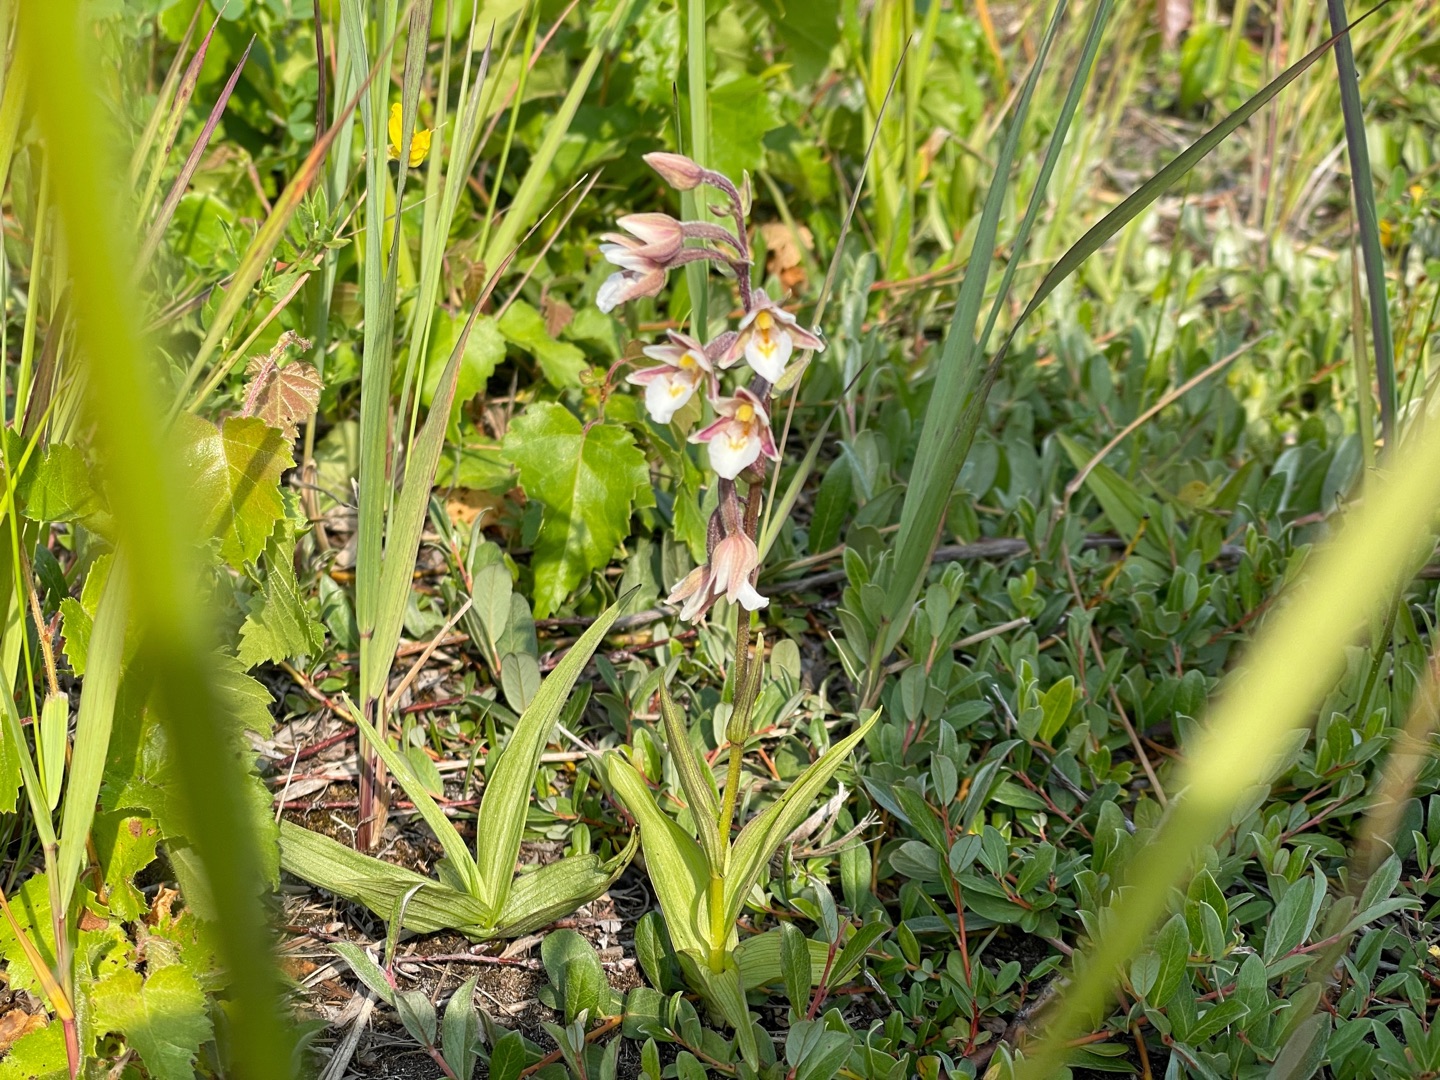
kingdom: Plantae
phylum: Tracheophyta
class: Liliopsida
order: Asparagales
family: Orchidaceae
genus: Epipactis
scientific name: Epipactis palustris
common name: Sump-hullæbe
